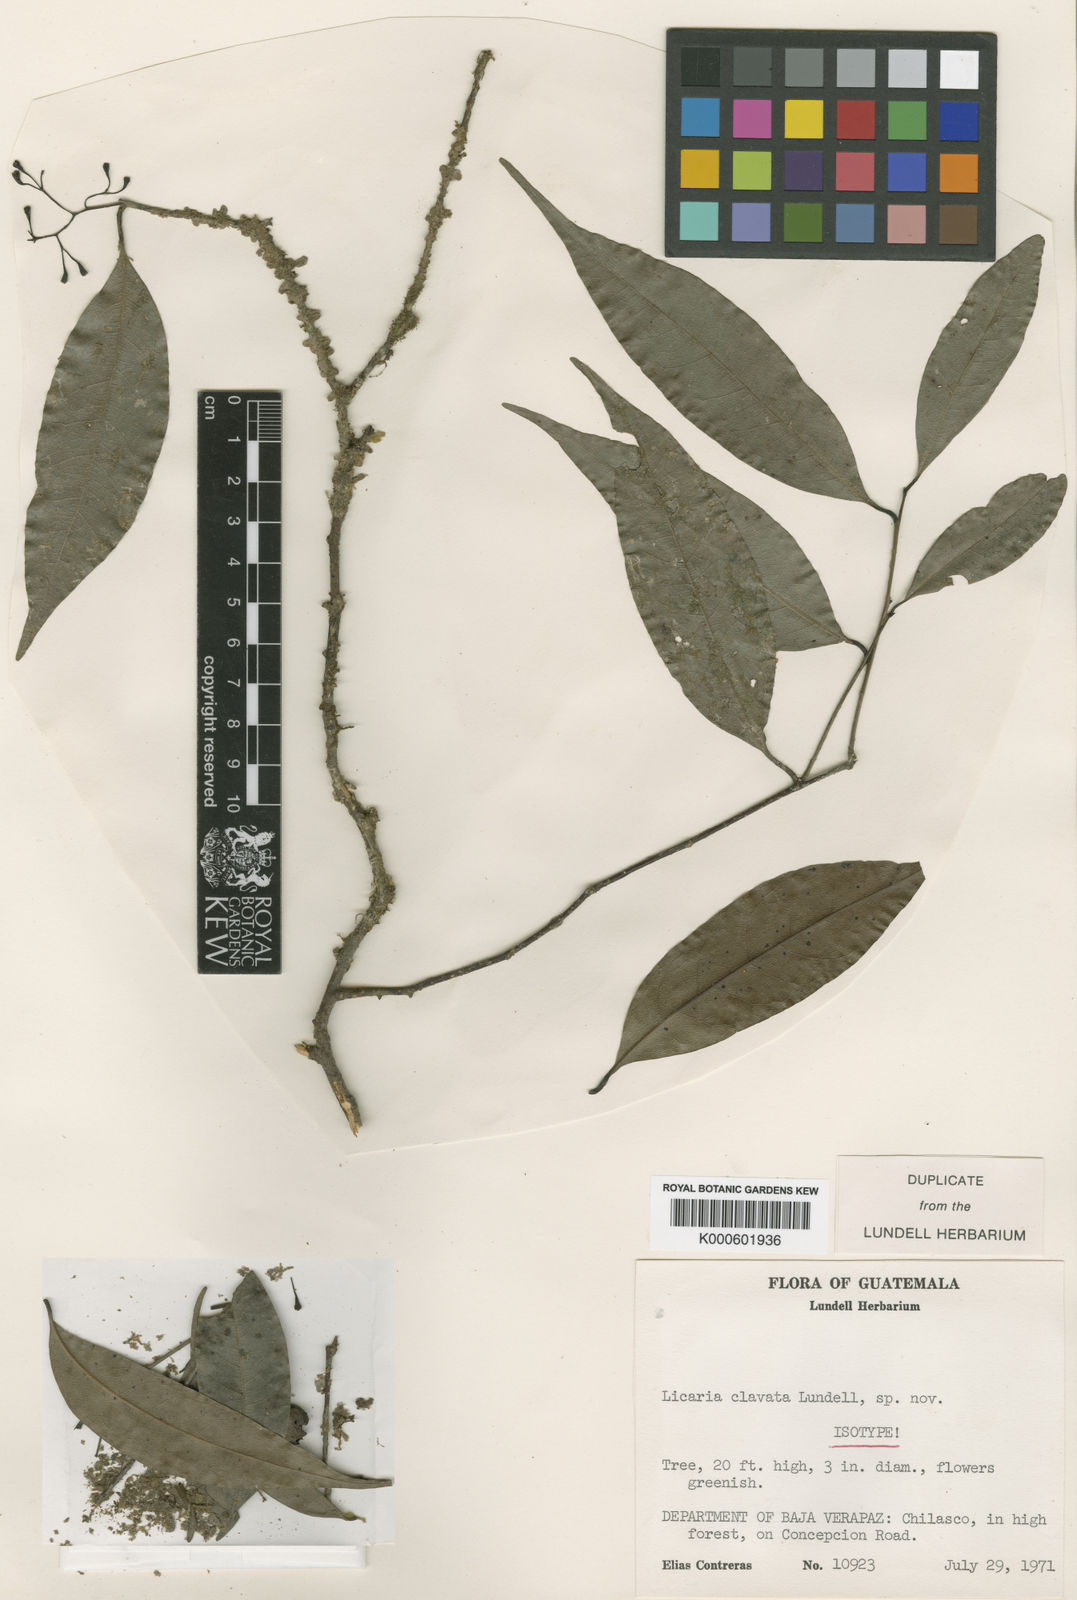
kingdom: Plantae
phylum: Tracheophyta
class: Magnoliopsida
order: Laurales
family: Lauraceae
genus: Licaria
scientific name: Licaria clavata
